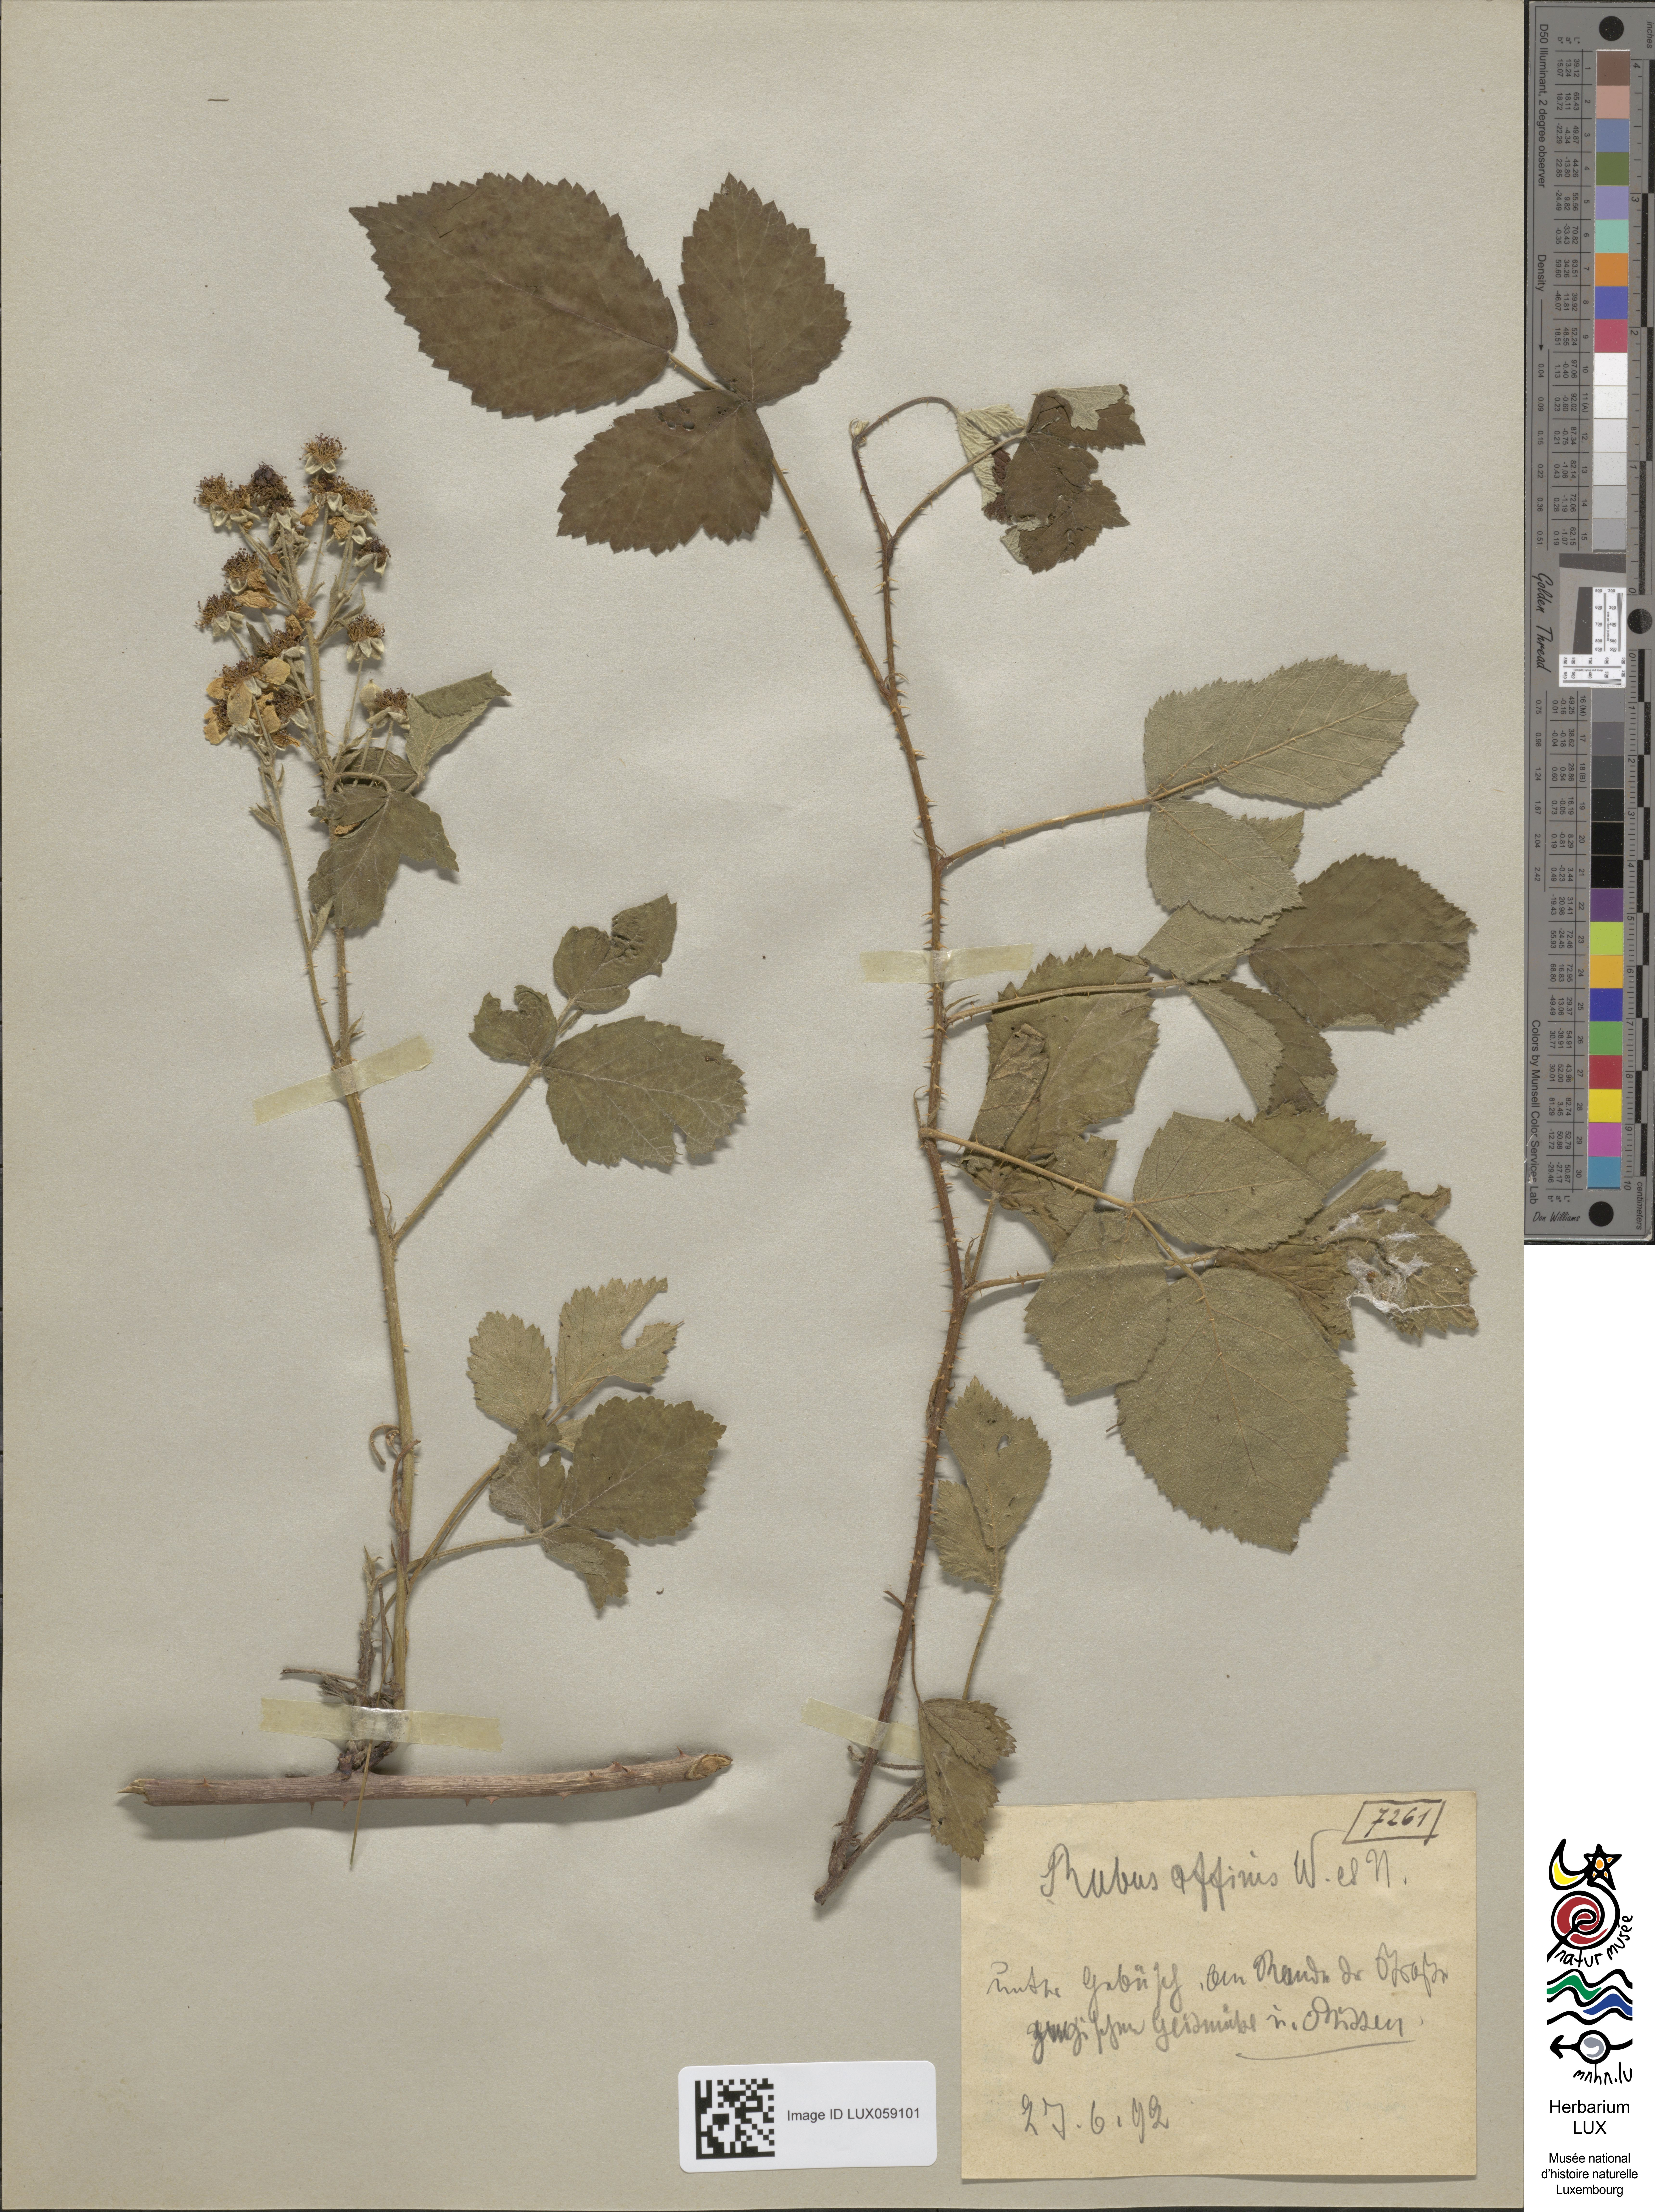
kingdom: Plantae
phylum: Tracheophyta
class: Magnoliopsida
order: Rosales
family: Rosaceae
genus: Rubus
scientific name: Rubus affinis
